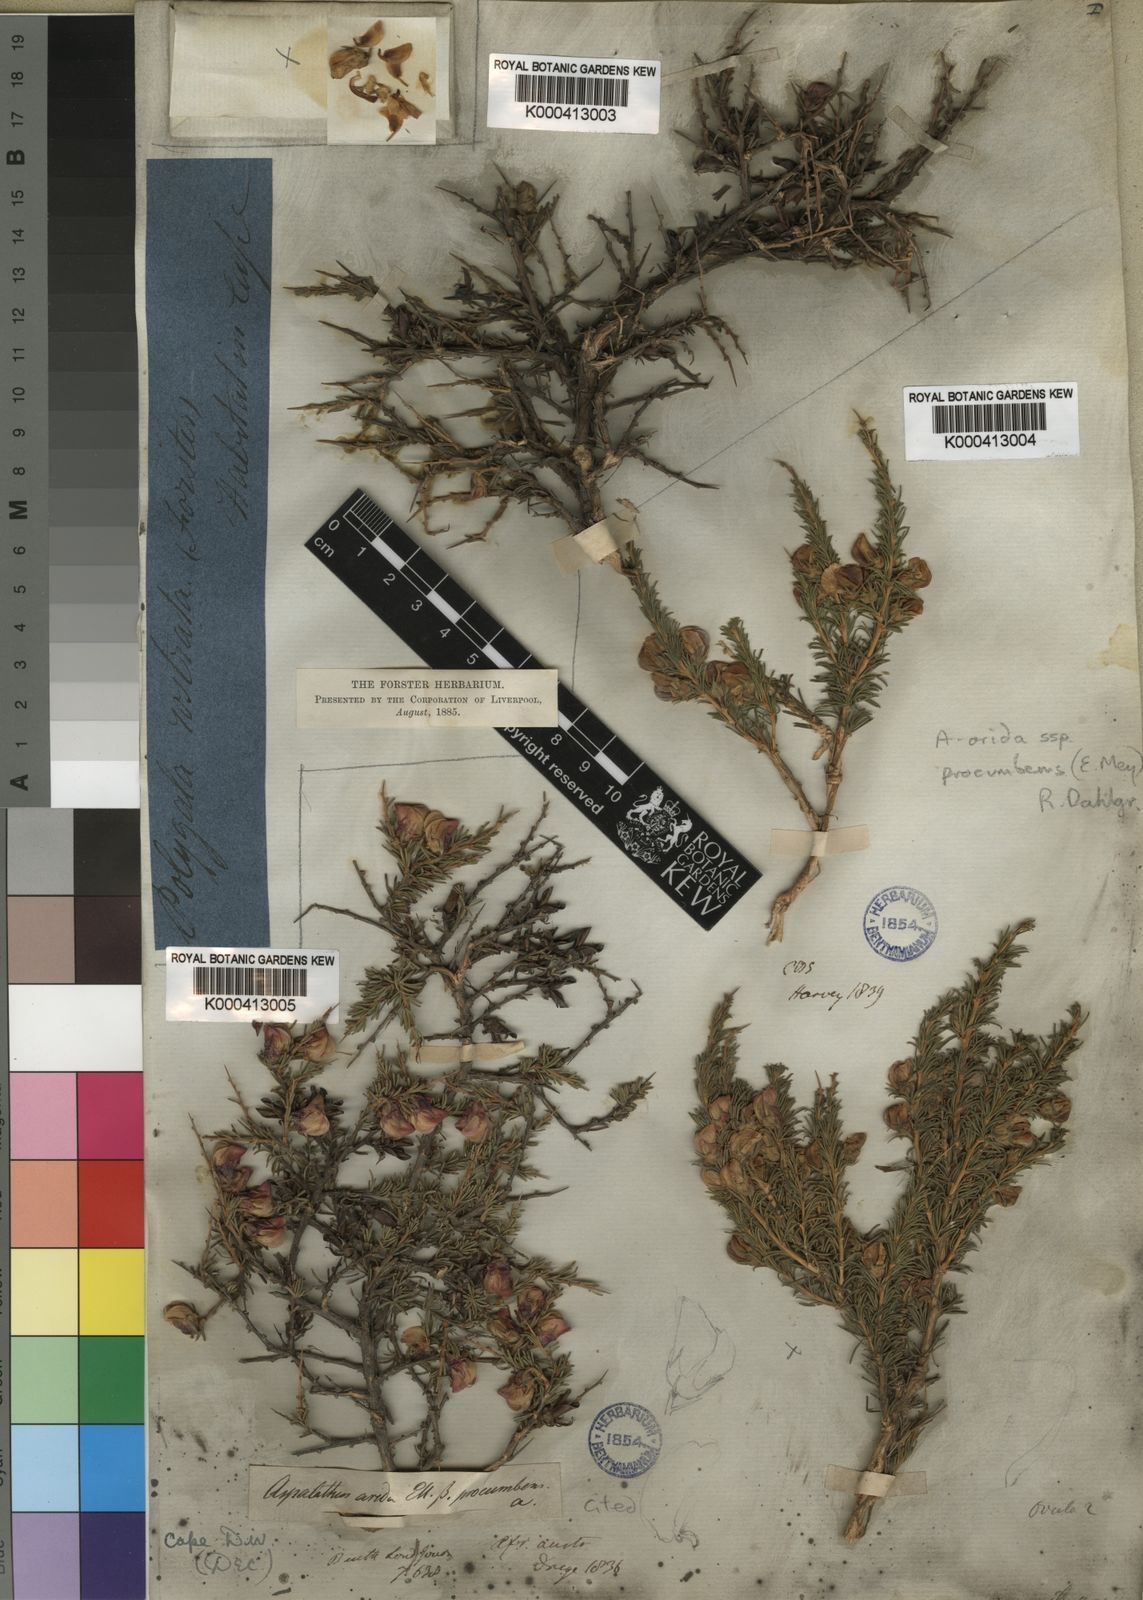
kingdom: Plantae
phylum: Tracheophyta
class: Magnoliopsida
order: Fabales
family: Fabaceae
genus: Aspalathus
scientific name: Aspalathus arida
